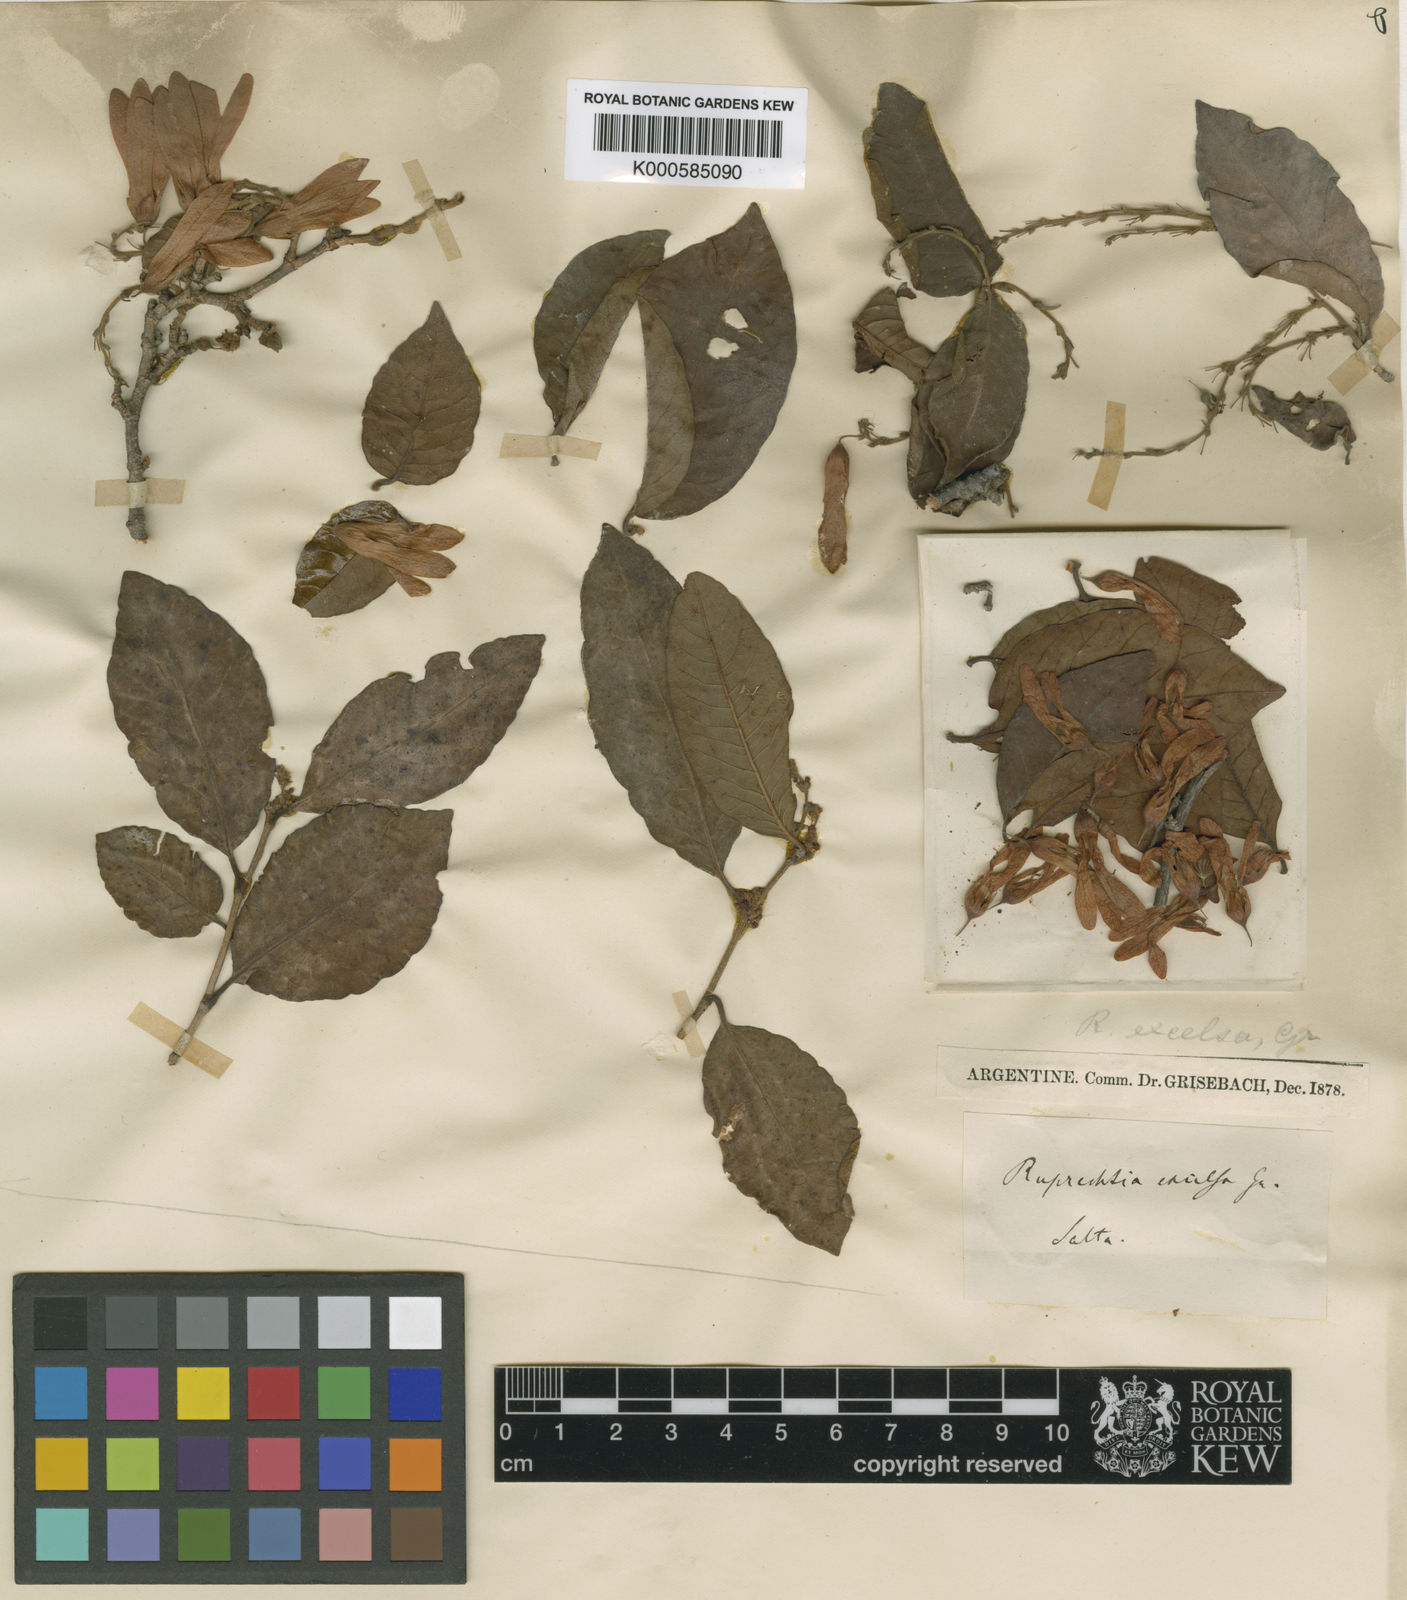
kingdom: Plantae
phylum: Tracheophyta
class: Magnoliopsida
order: Caryophyllales
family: Polygonaceae
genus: Ruprechtia
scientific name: Ruprechtia apetala
